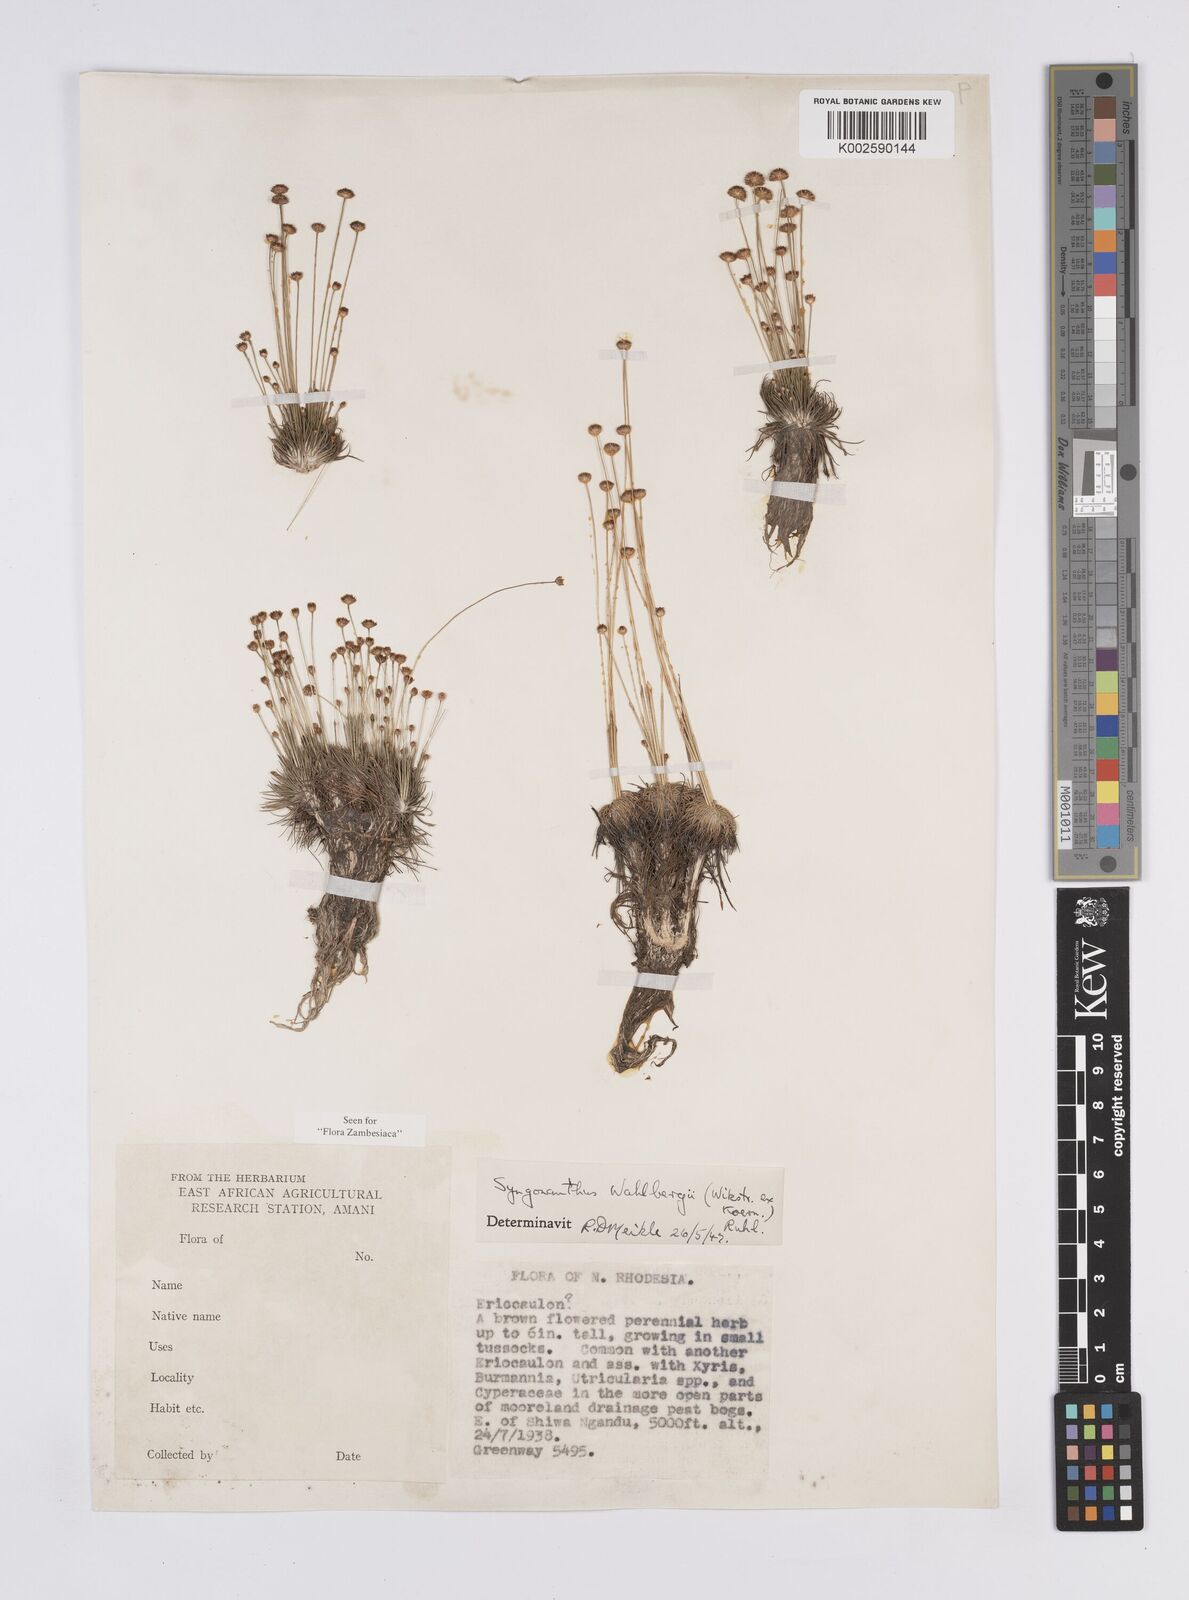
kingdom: Plantae
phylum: Tracheophyta
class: Liliopsida
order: Poales
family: Eriocaulaceae
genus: Syngonanthus
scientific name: Syngonanthus wahlbergii
